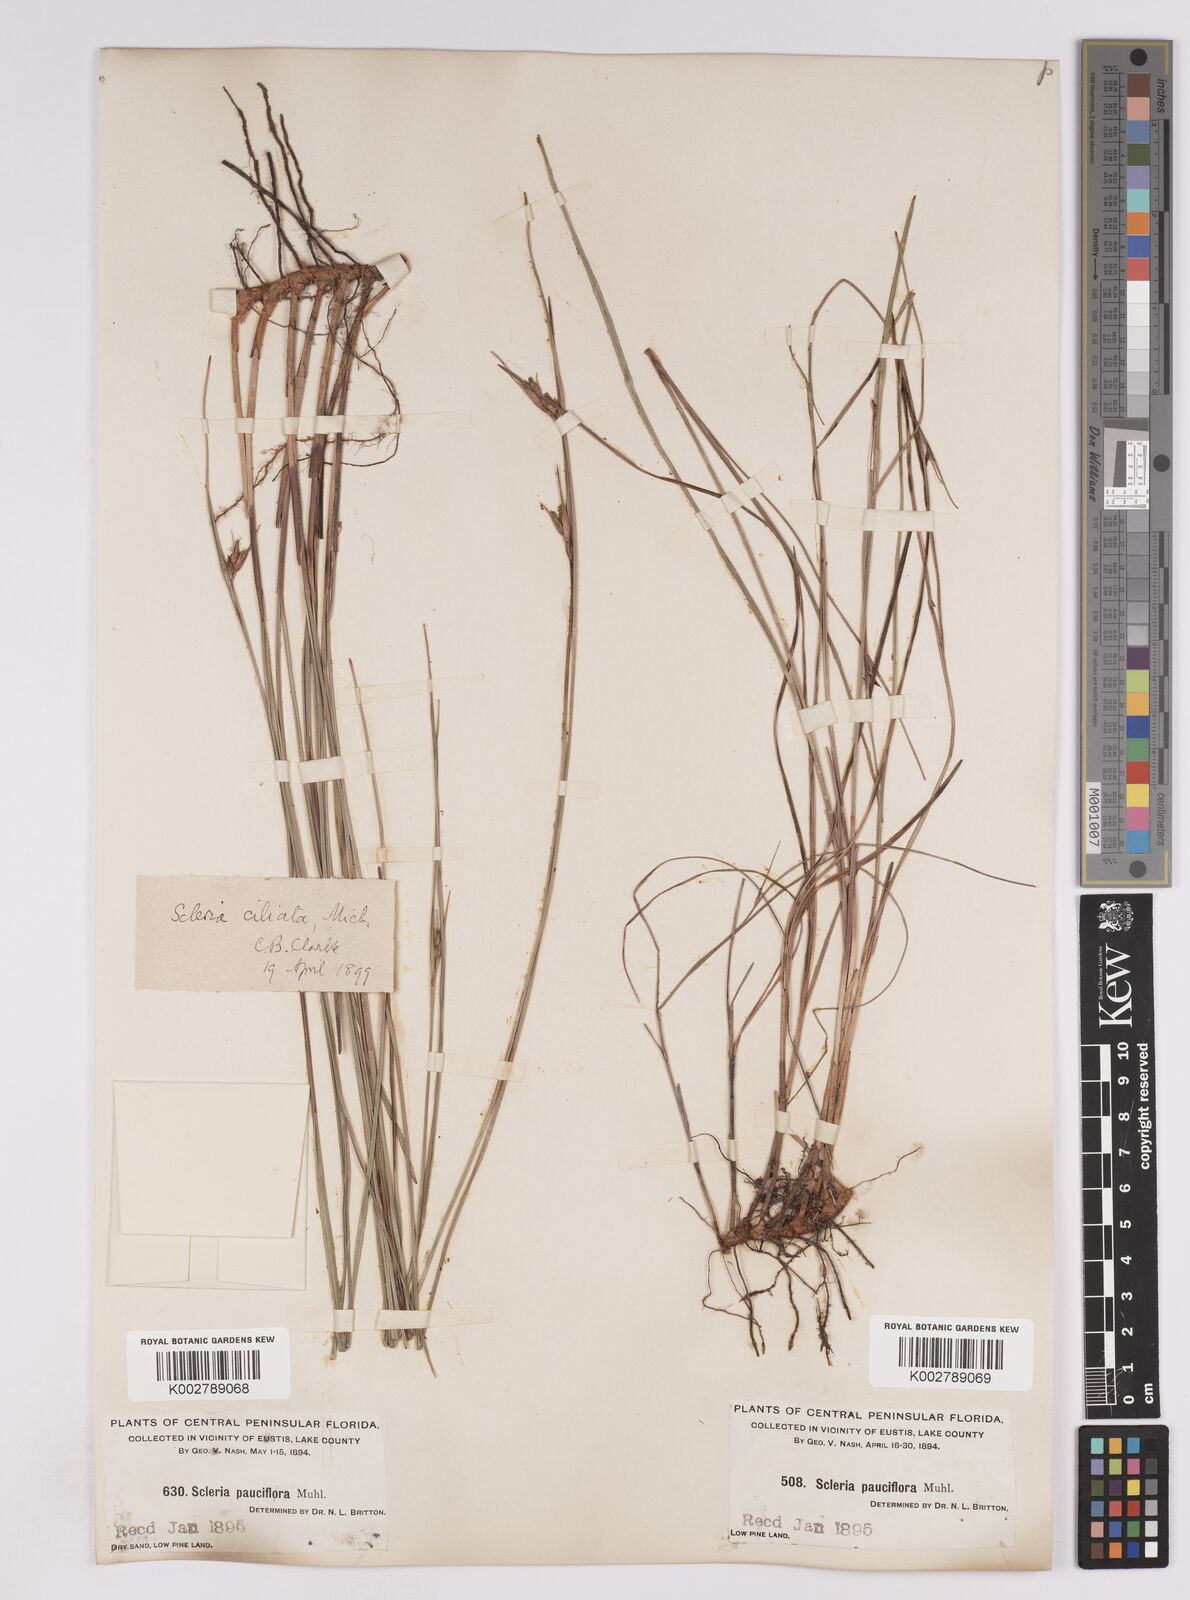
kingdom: Plantae
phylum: Tracheophyta
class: Liliopsida
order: Poales
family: Cyperaceae
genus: Scleria
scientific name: Scleria ciliata
